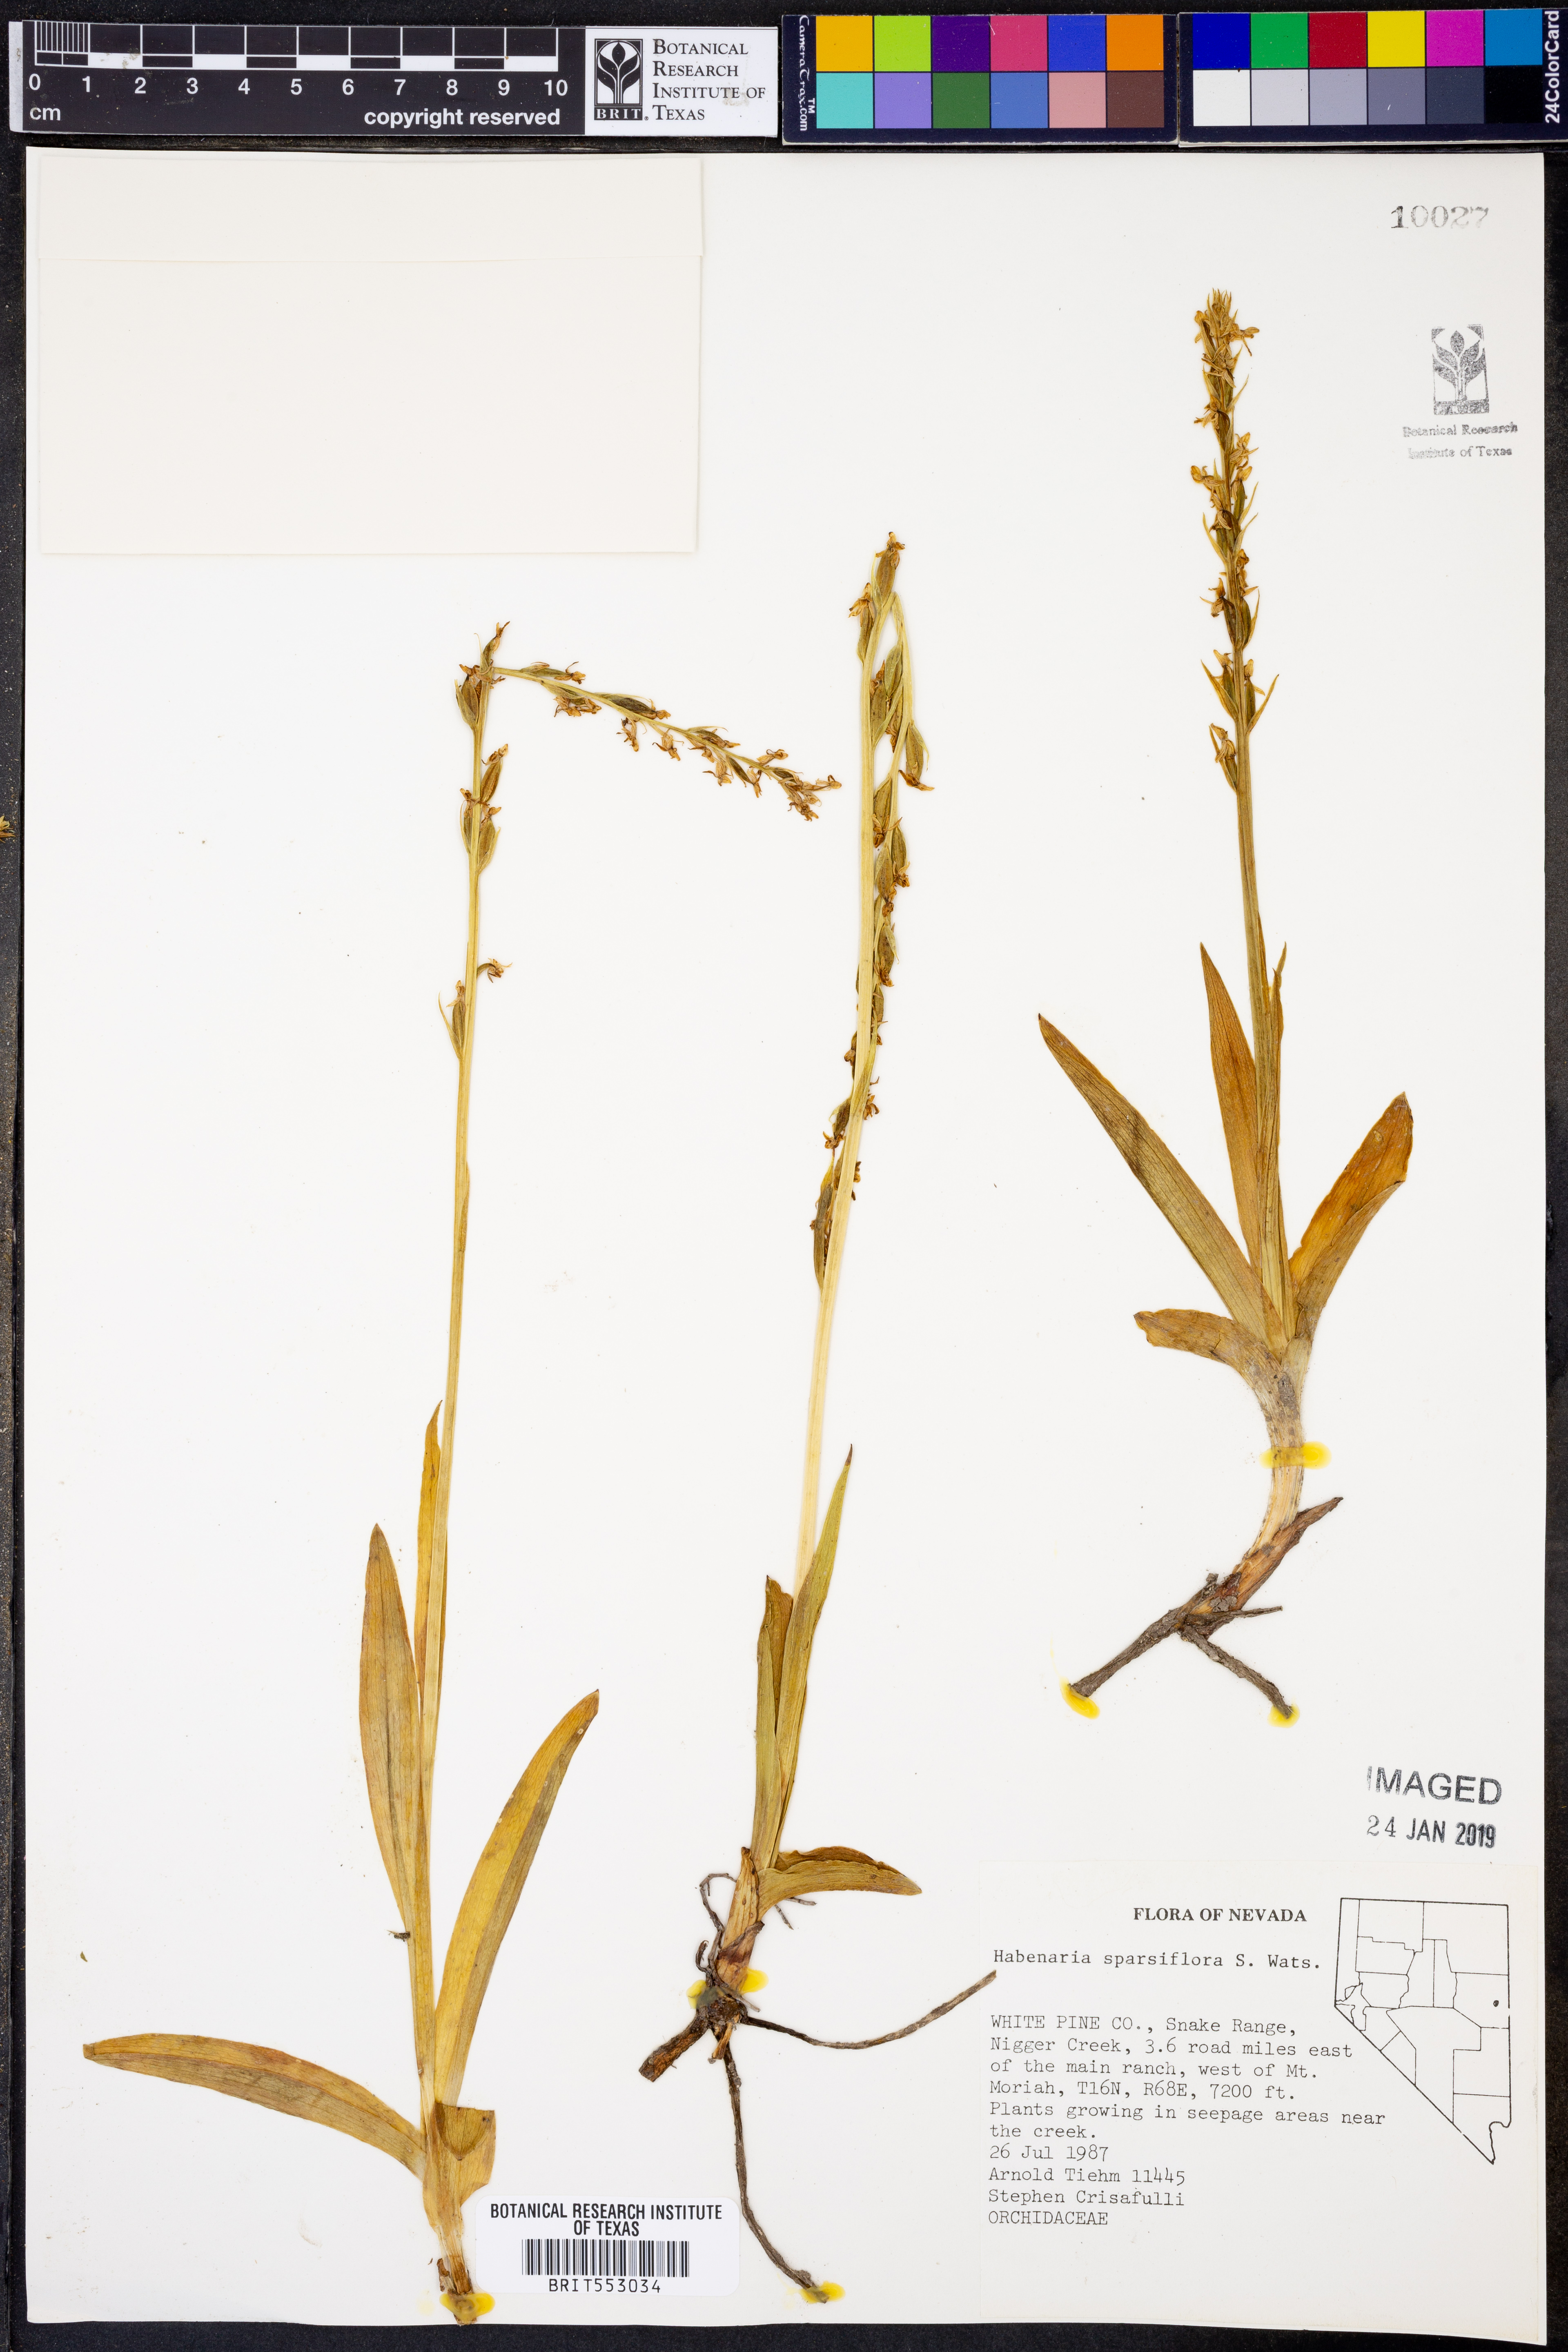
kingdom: Plantae
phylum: Tracheophyta
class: Liliopsida
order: Asparagales
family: Orchidaceae
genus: Platanthera
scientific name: Platanthera sparsiflora
